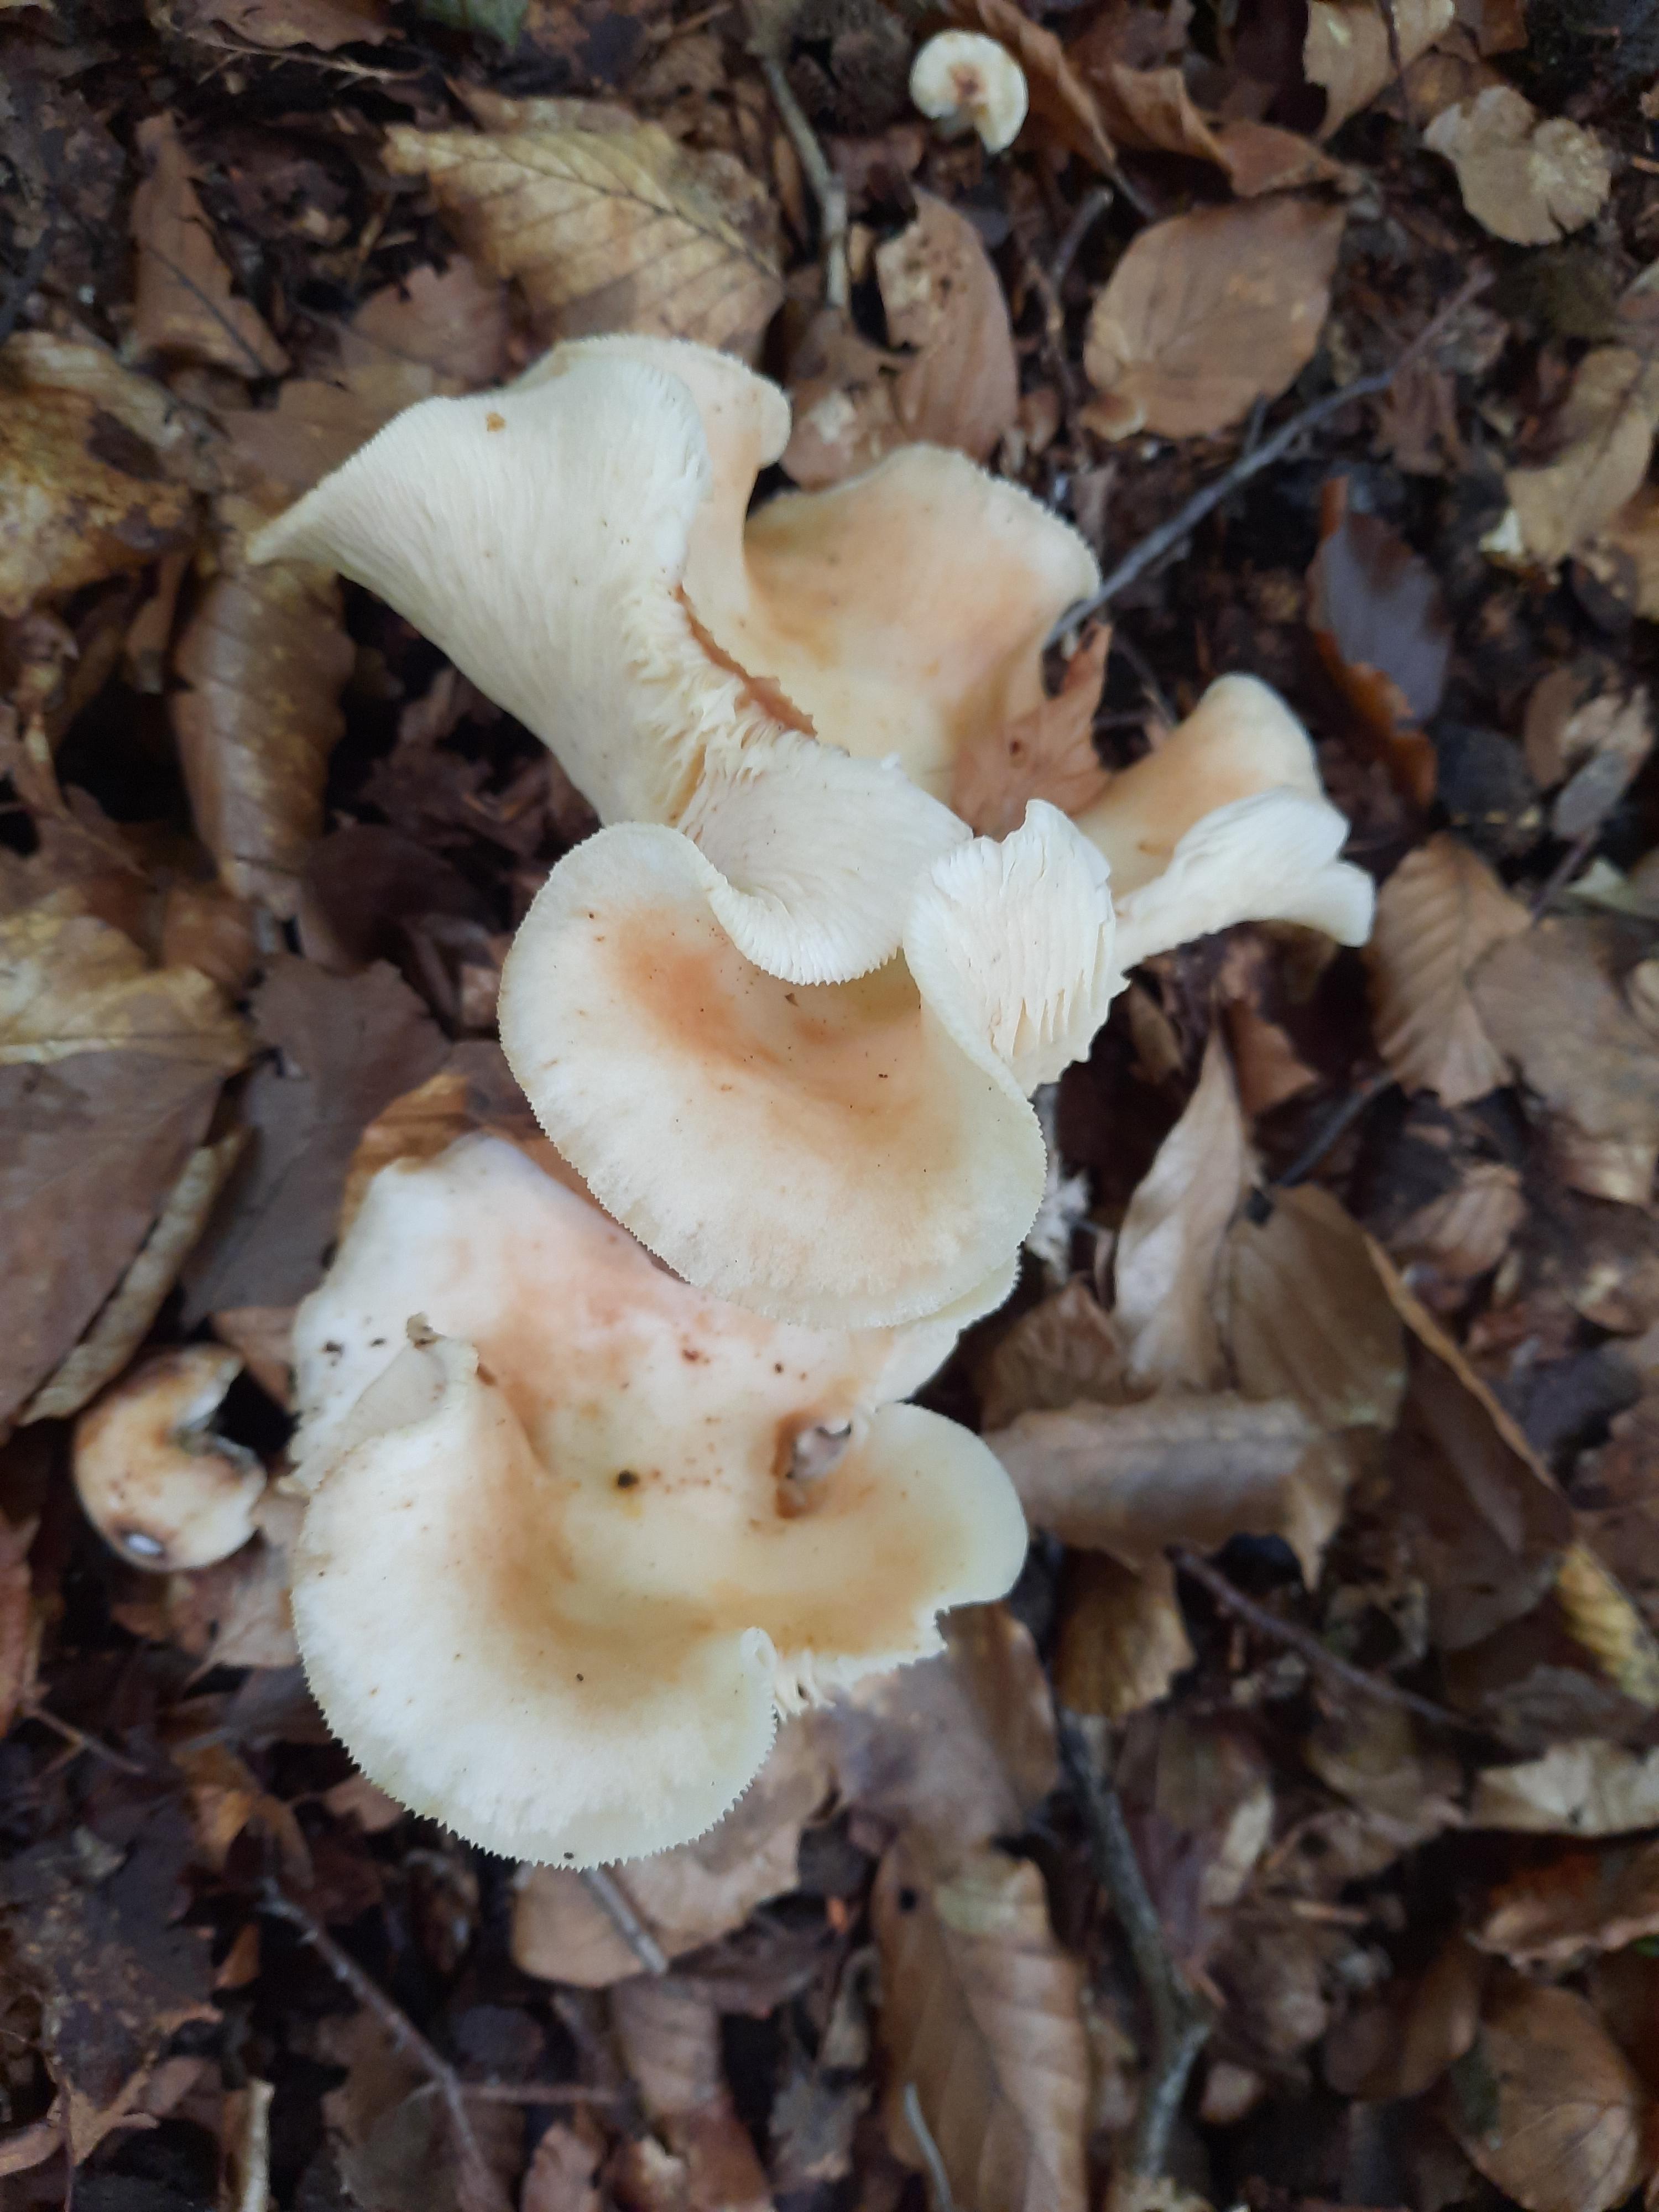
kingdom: Fungi
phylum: Basidiomycota
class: Agaricomycetes
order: Agaricales
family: Omphalotaceae
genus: Rhodocollybia
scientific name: Rhodocollybia maculata
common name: plettet fladhat
